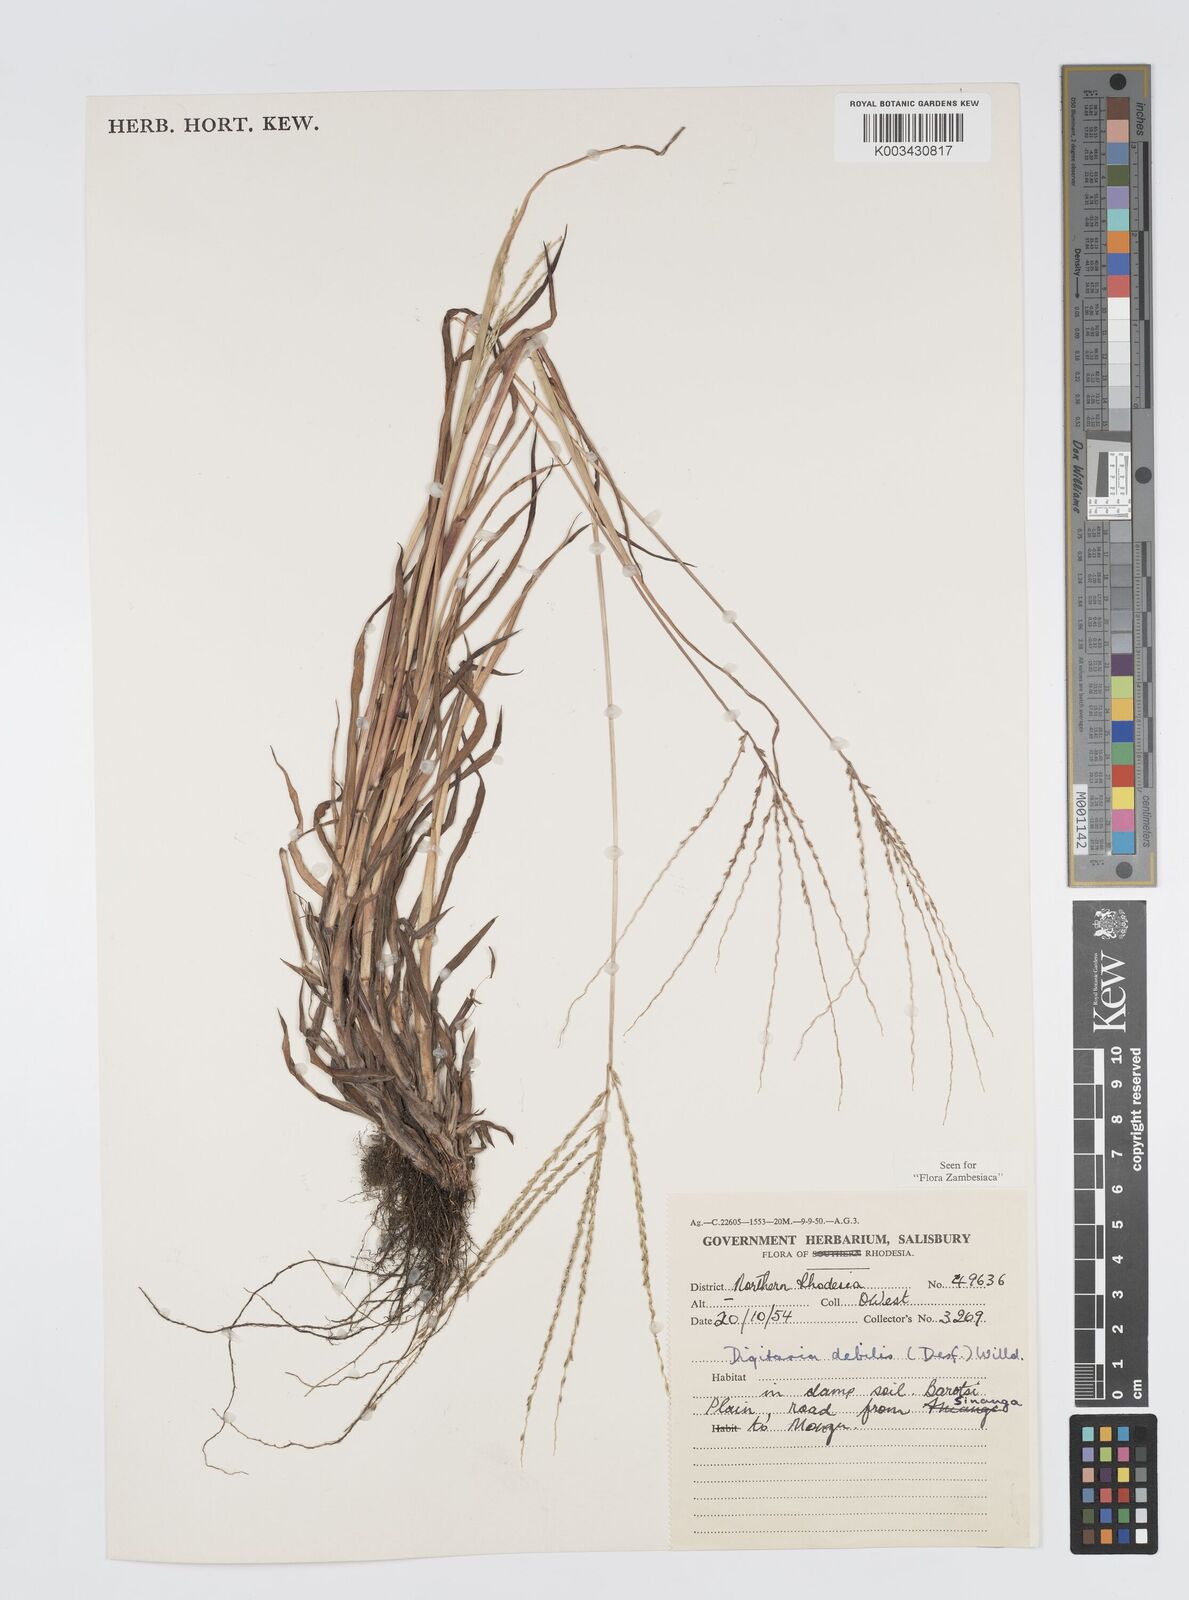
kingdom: Plantae
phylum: Tracheophyta
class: Liliopsida
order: Poales
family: Poaceae
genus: Digitaria
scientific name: Digitaria debilis
